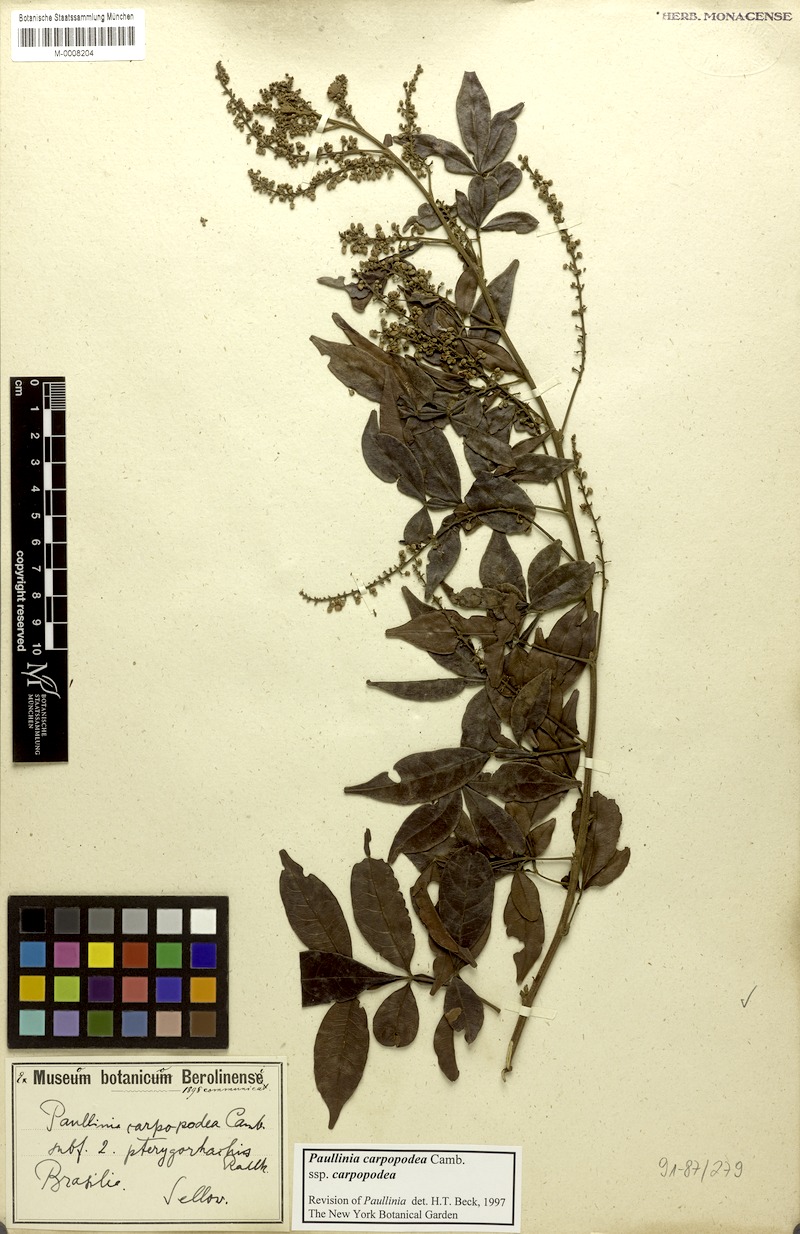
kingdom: Plantae
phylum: Tracheophyta
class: Magnoliopsida
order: Sapindales
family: Sapindaceae
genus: Paullinia
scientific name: Paullinia carpopoda
